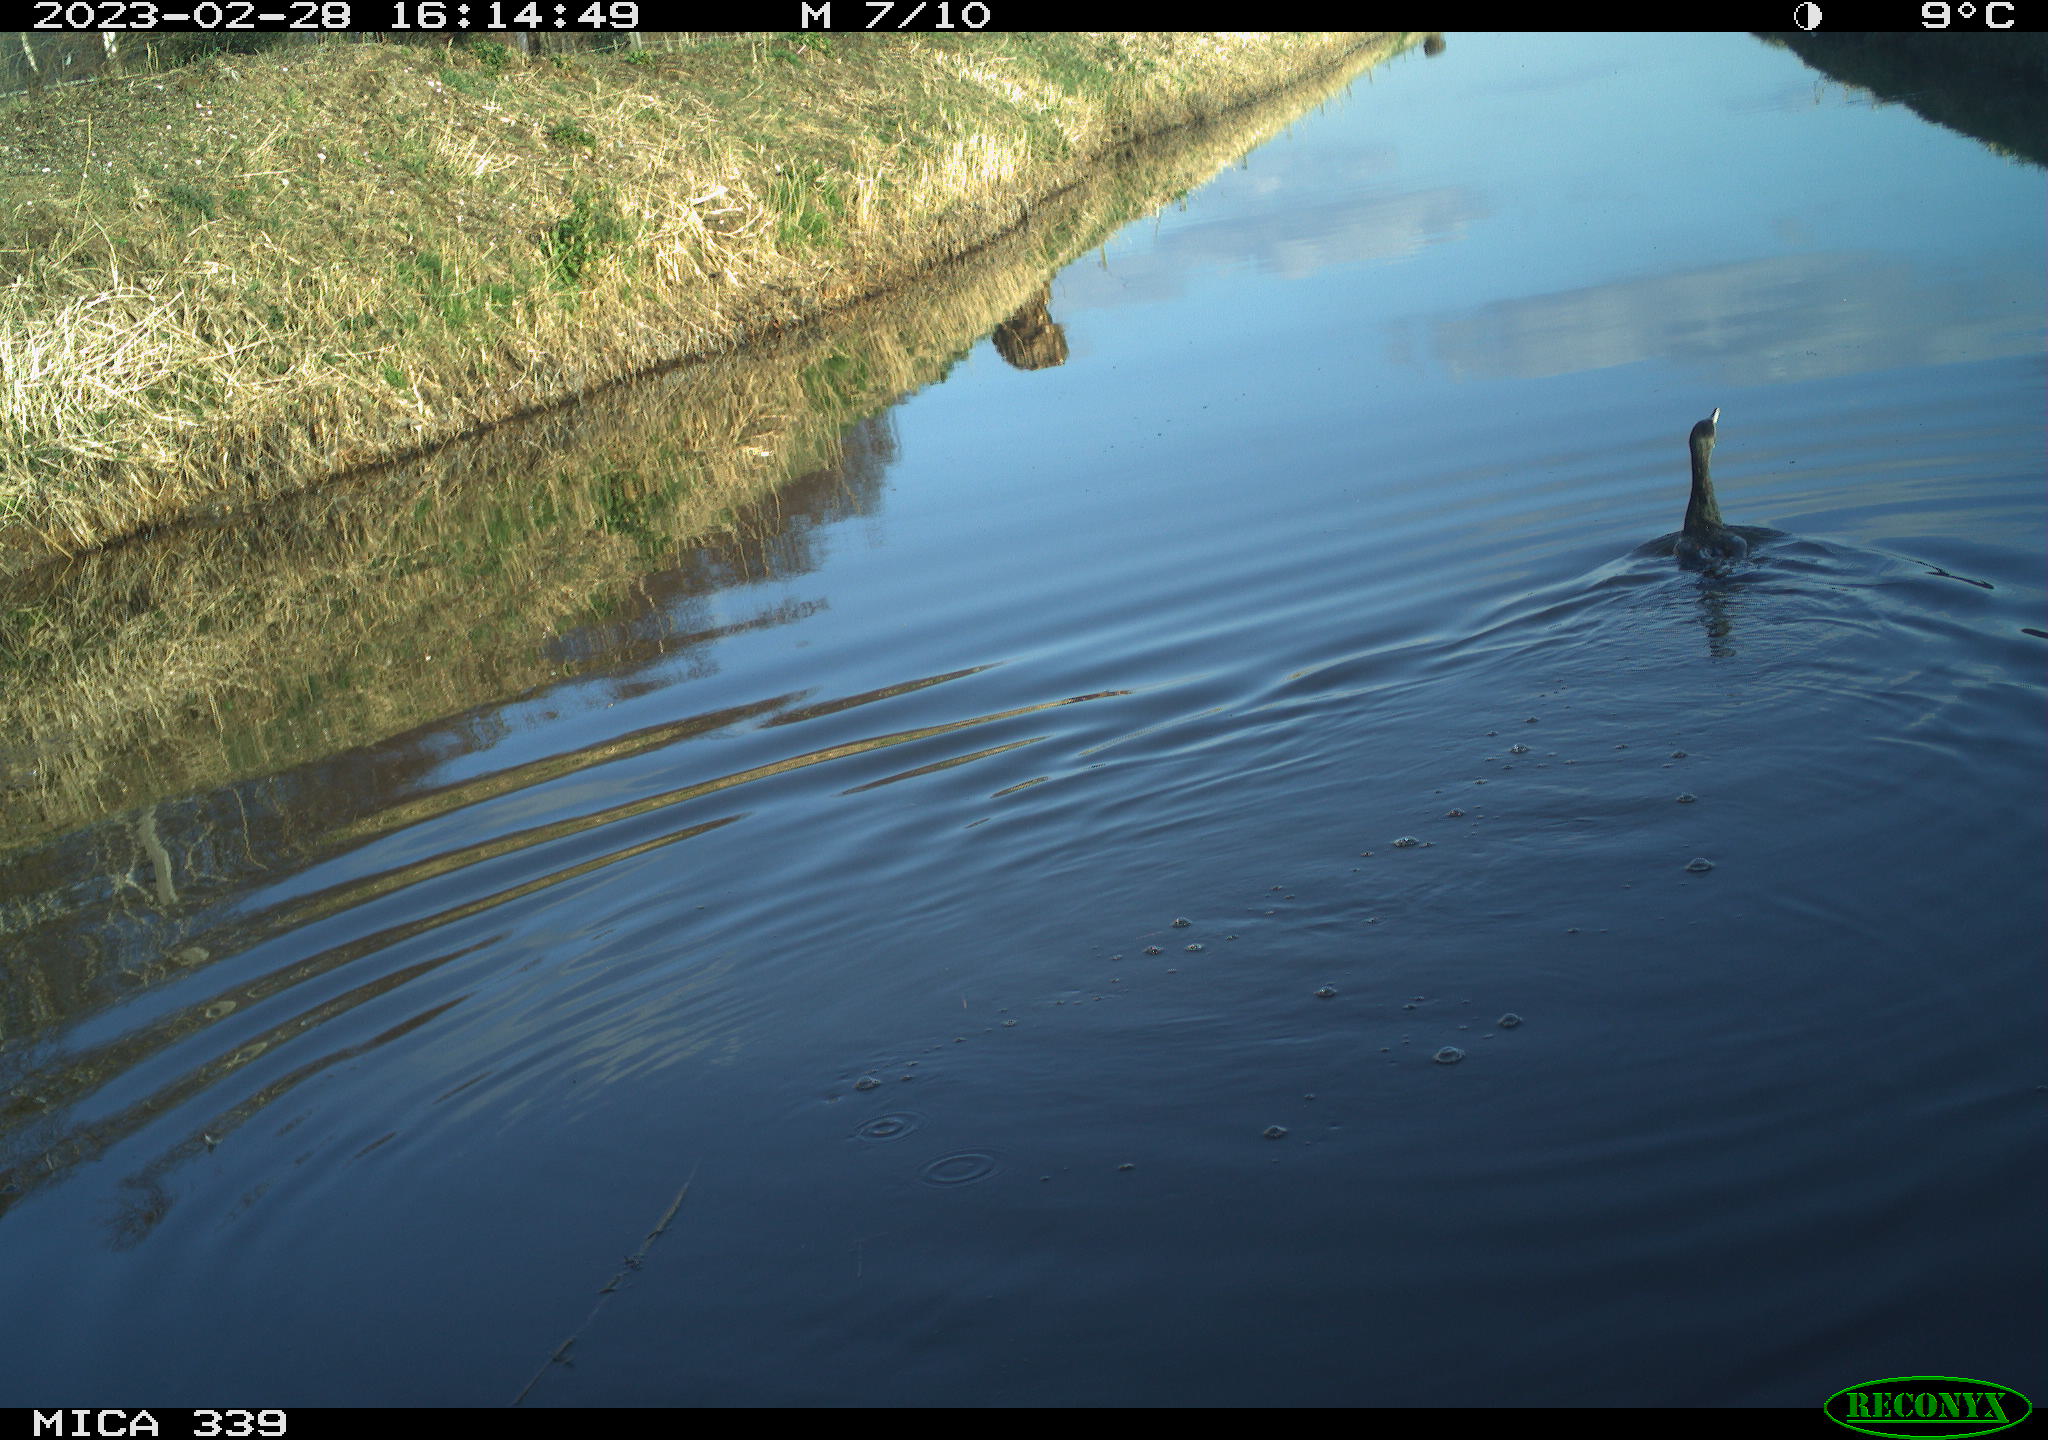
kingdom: Animalia
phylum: Chordata
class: Aves
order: Suliformes
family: Phalacrocoracidae
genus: Phalacrocorax
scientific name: Phalacrocorax carbo
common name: Great cormorant
